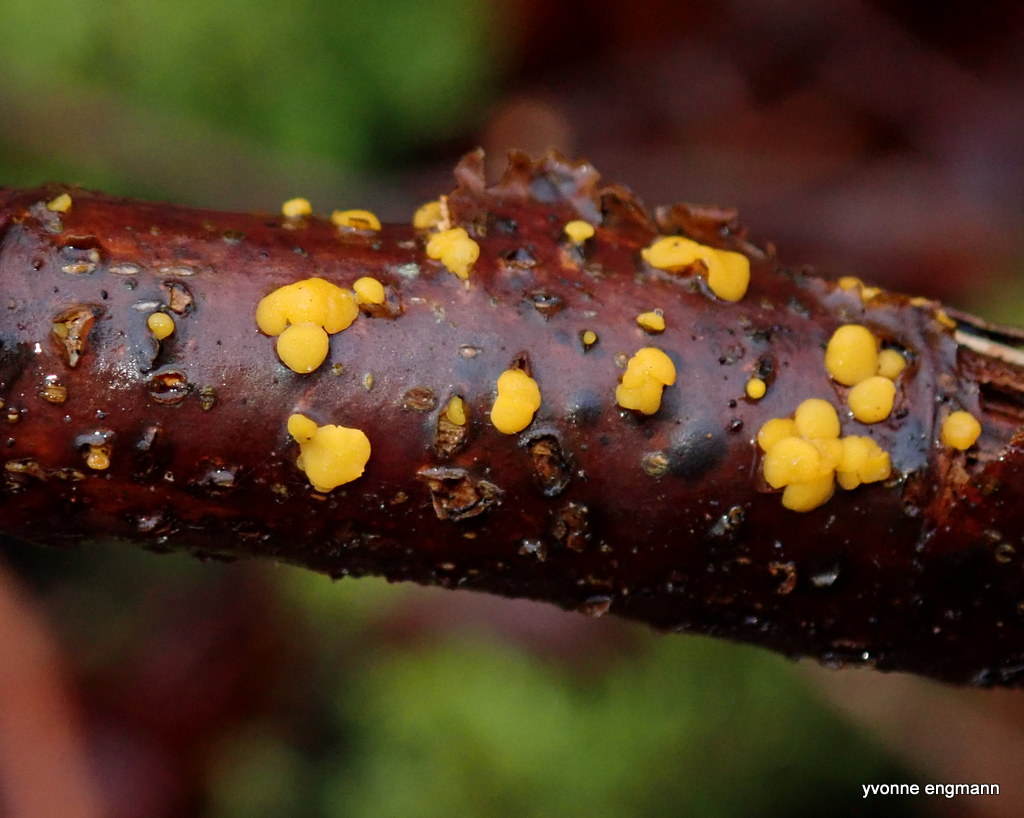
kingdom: Fungi
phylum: Ascomycota
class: Leotiomycetes
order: Helotiales
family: Pezizellaceae
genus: Calycina
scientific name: Calycina citrina
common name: almindelig gulskive
